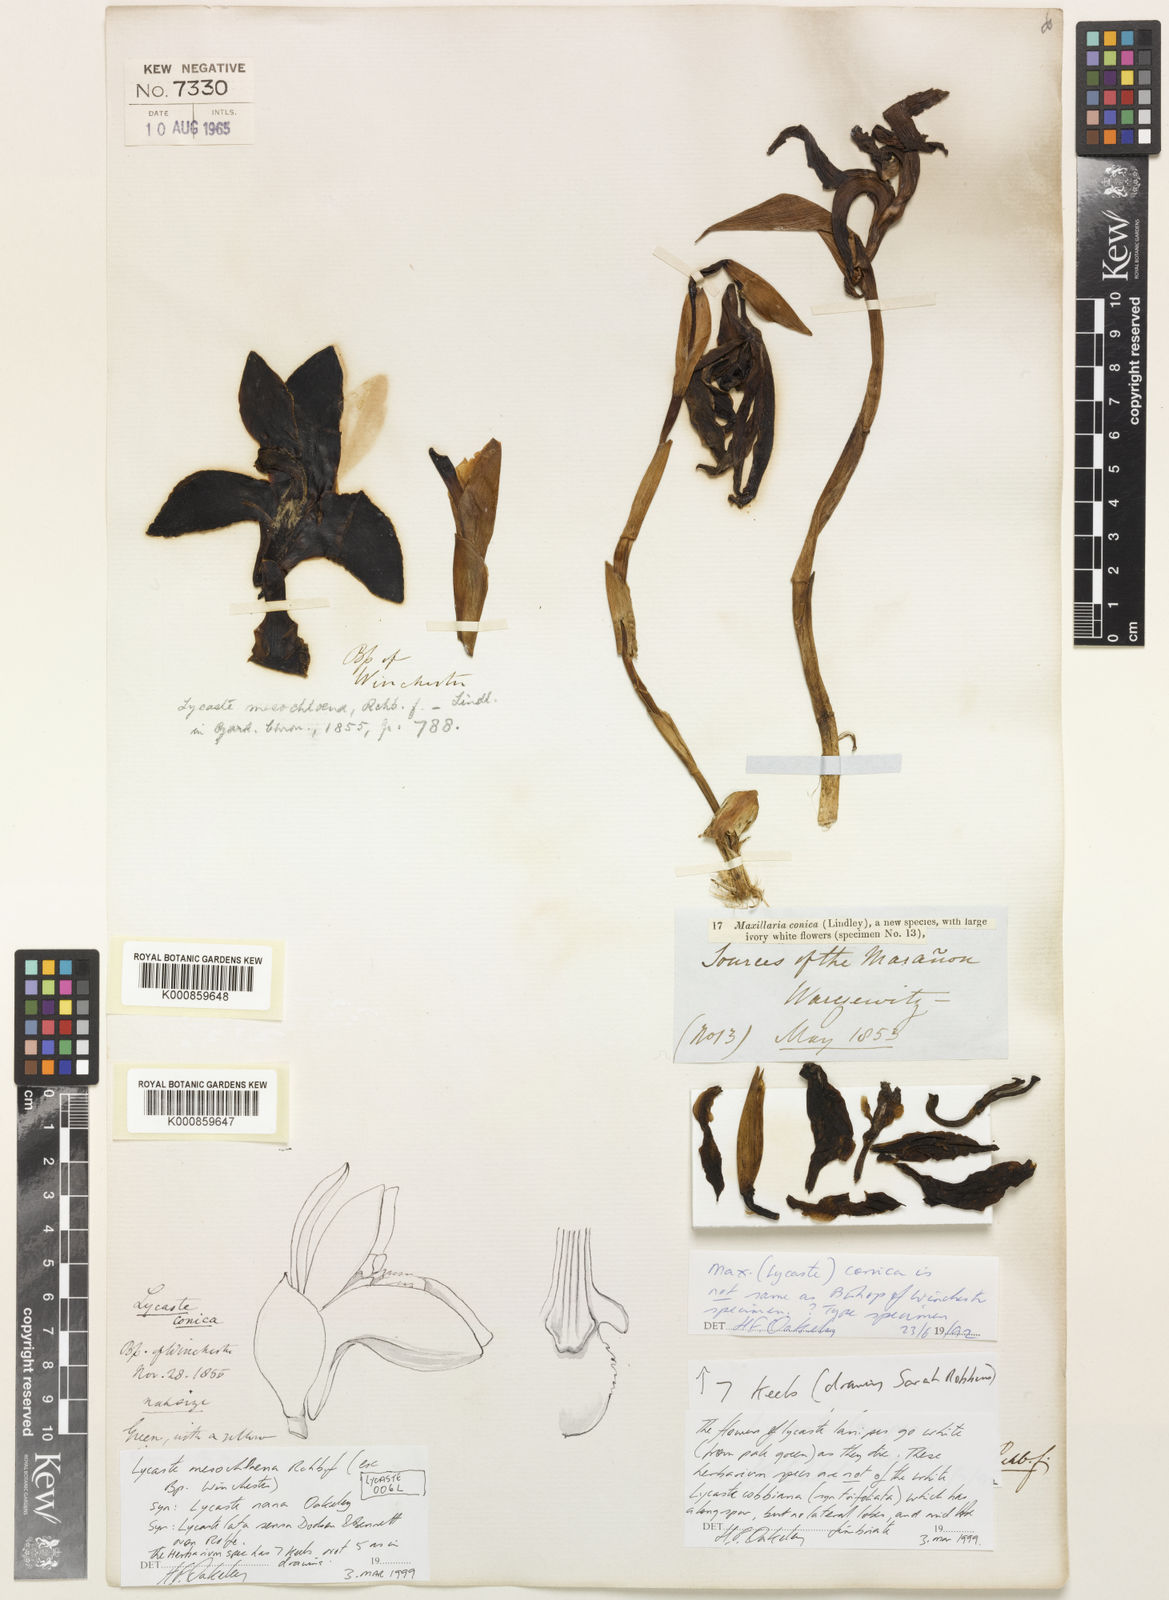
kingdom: Plantae
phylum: Tracheophyta
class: Liliopsida
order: Asparagales
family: Orchidaceae
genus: Ida
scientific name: Ida reichenbachii
